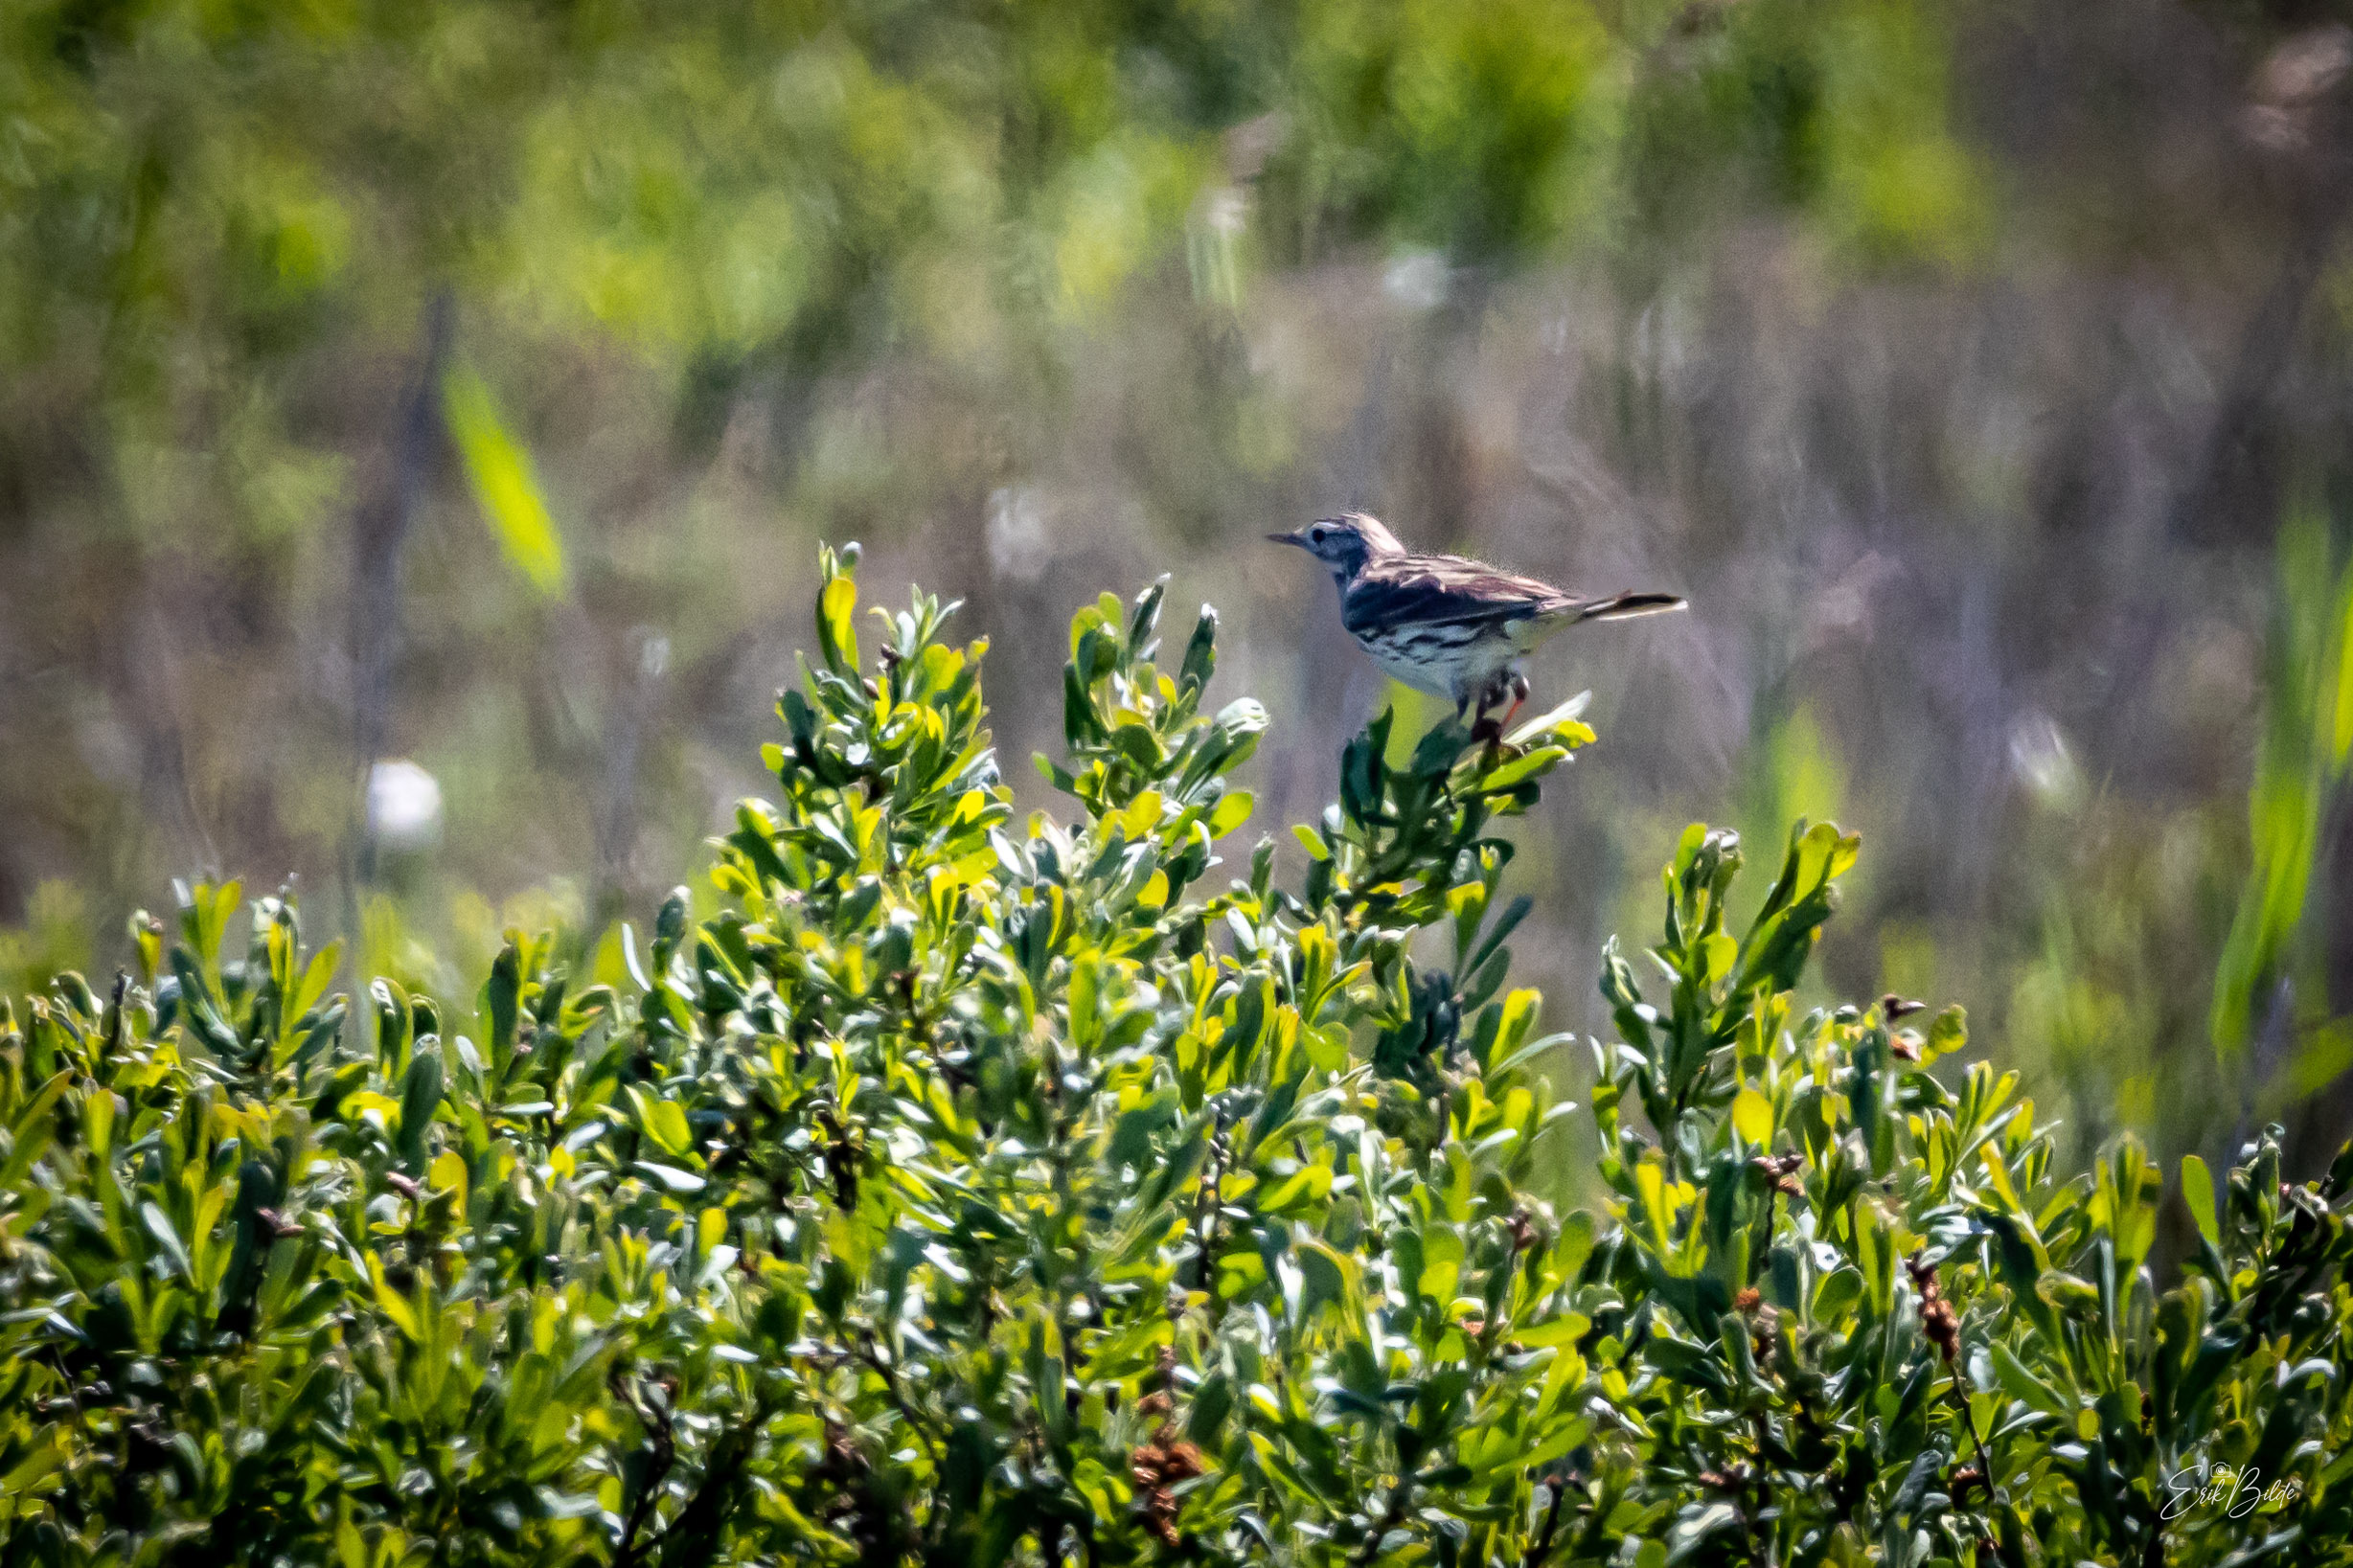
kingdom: Animalia
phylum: Chordata
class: Aves
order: Passeriformes
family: Motacillidae
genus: Anthus
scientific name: Anthus pratensis
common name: Engpiber
